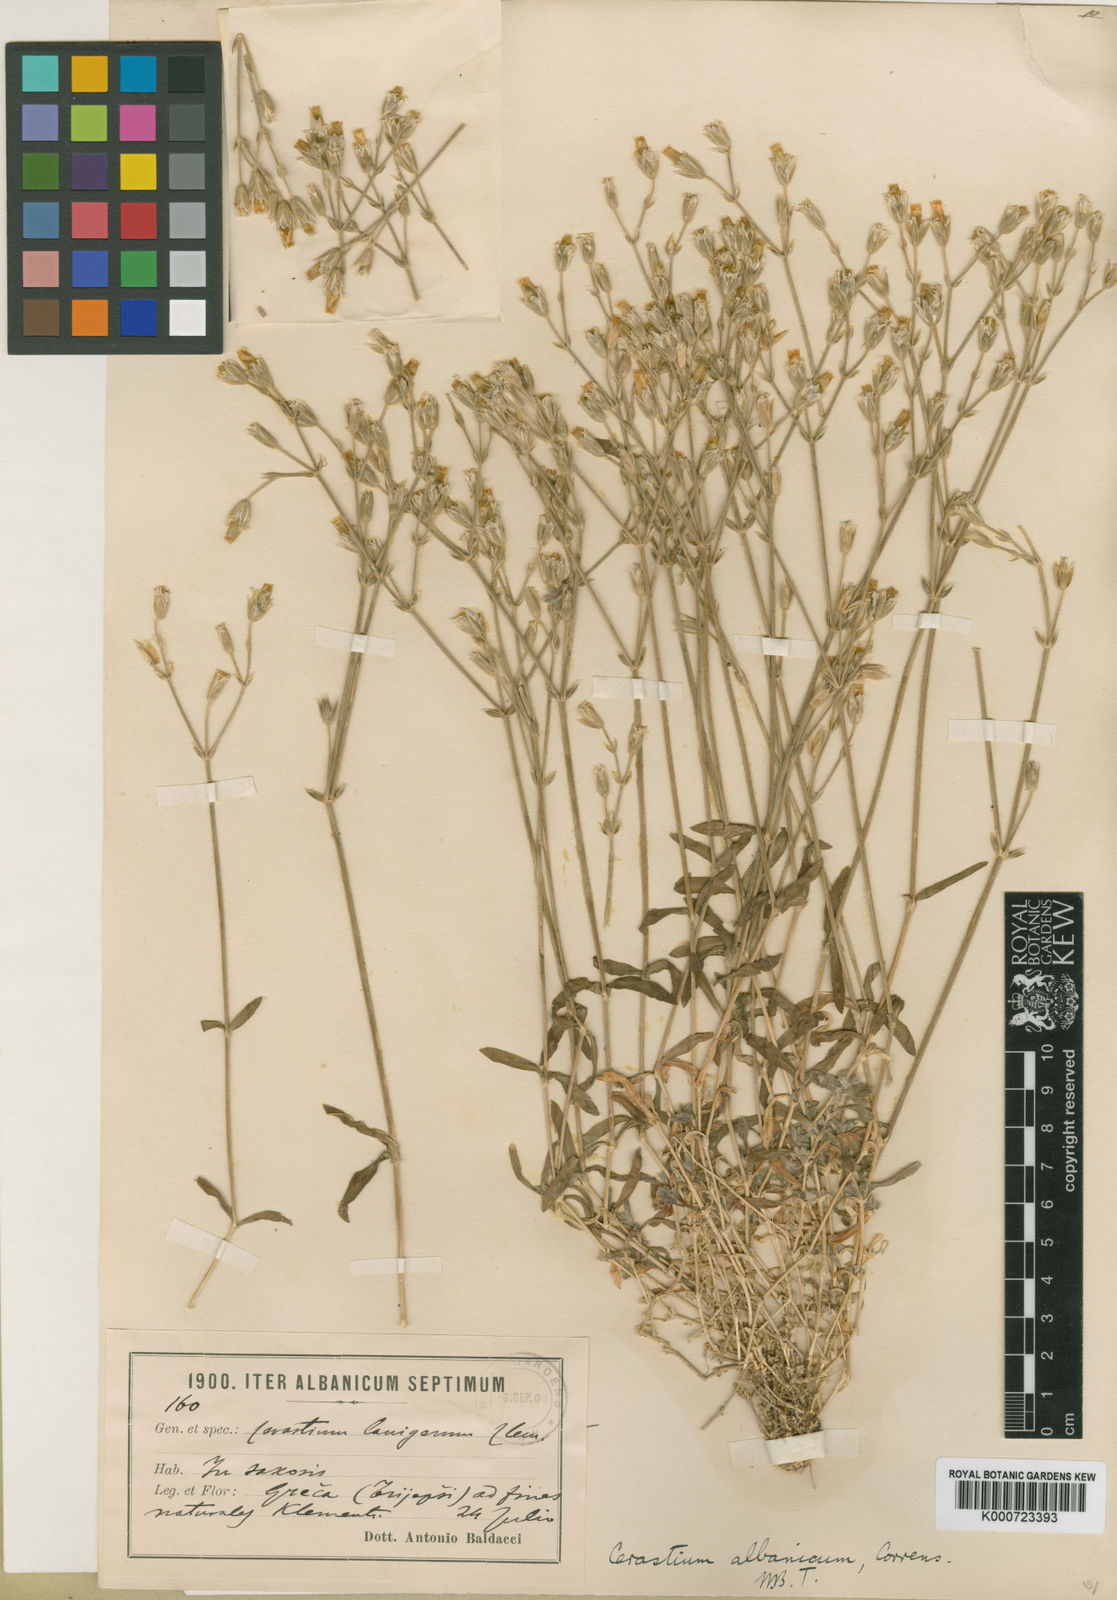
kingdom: Plantae
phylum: Tracheophyta
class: Magnoliopsida
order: Caryophyllales
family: Caryophyllaceae
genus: Cerastium
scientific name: Cerastium decalvans
